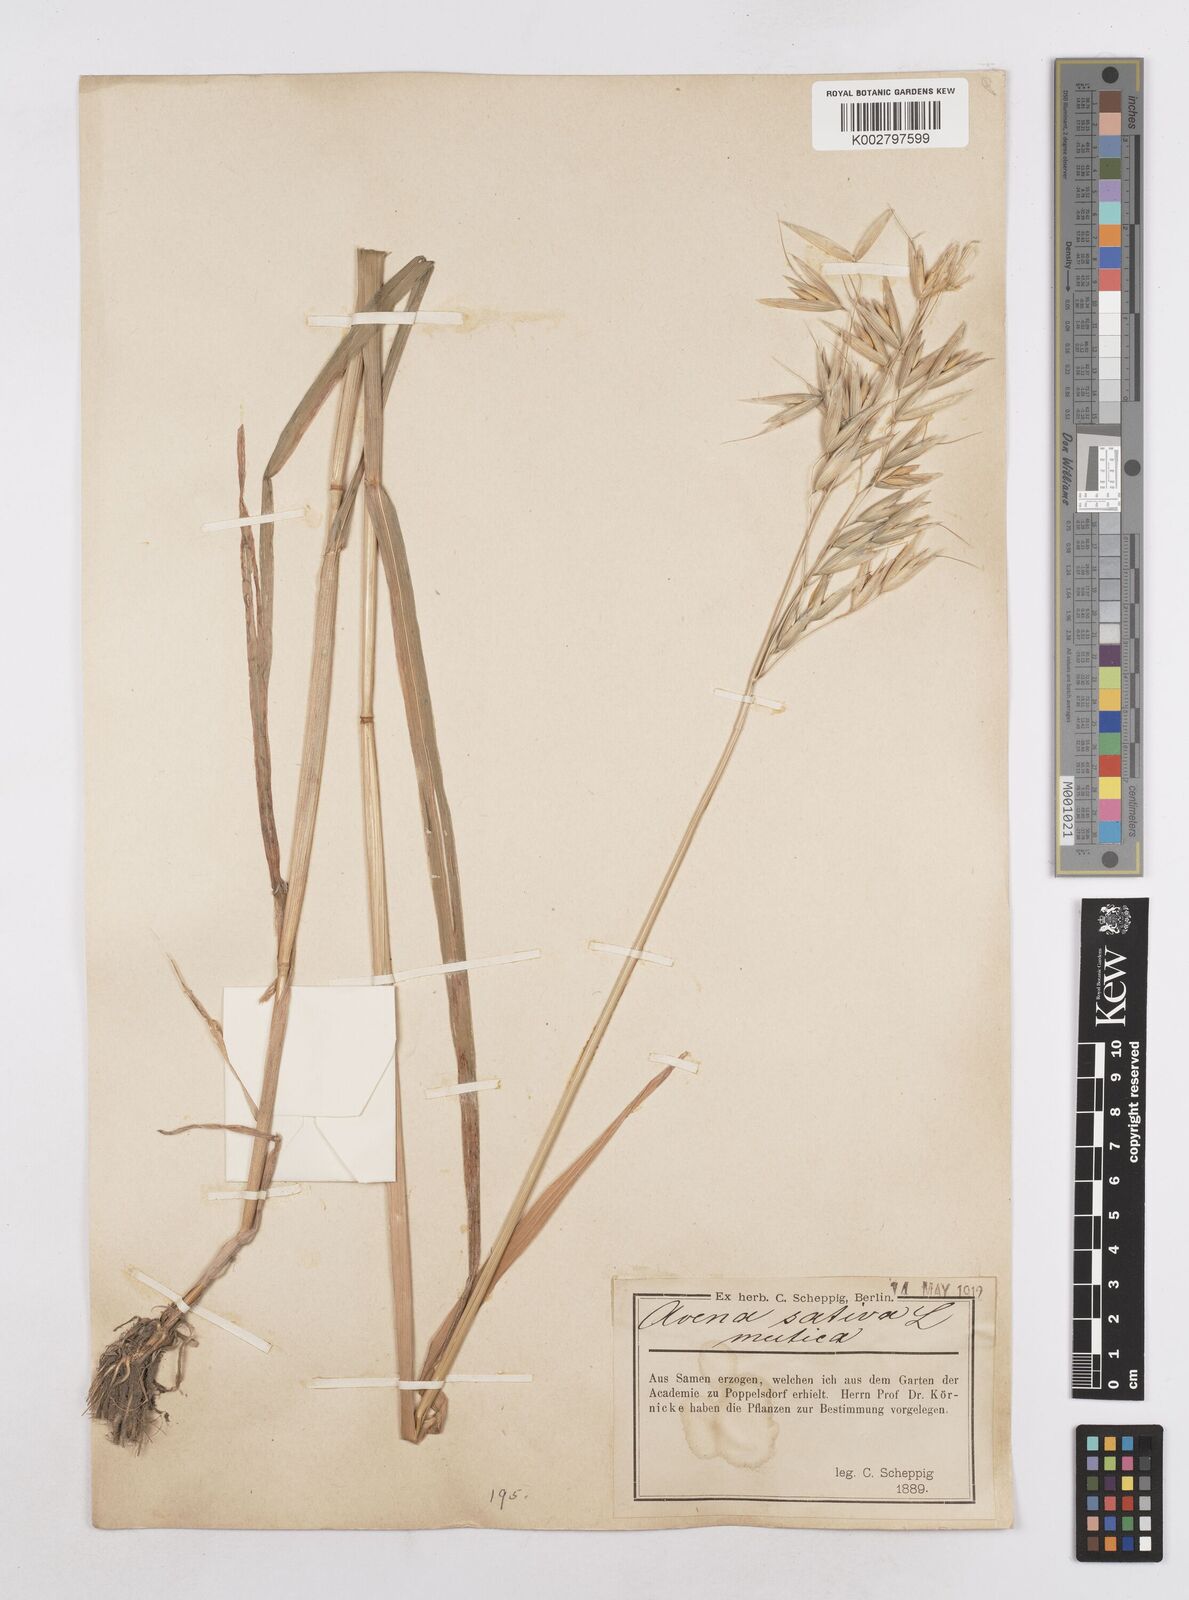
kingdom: Plantae
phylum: Tracheophyta
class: Liliopsida
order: Poales
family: Poaceae
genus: Avena
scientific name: Avena sativa
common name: Oat
